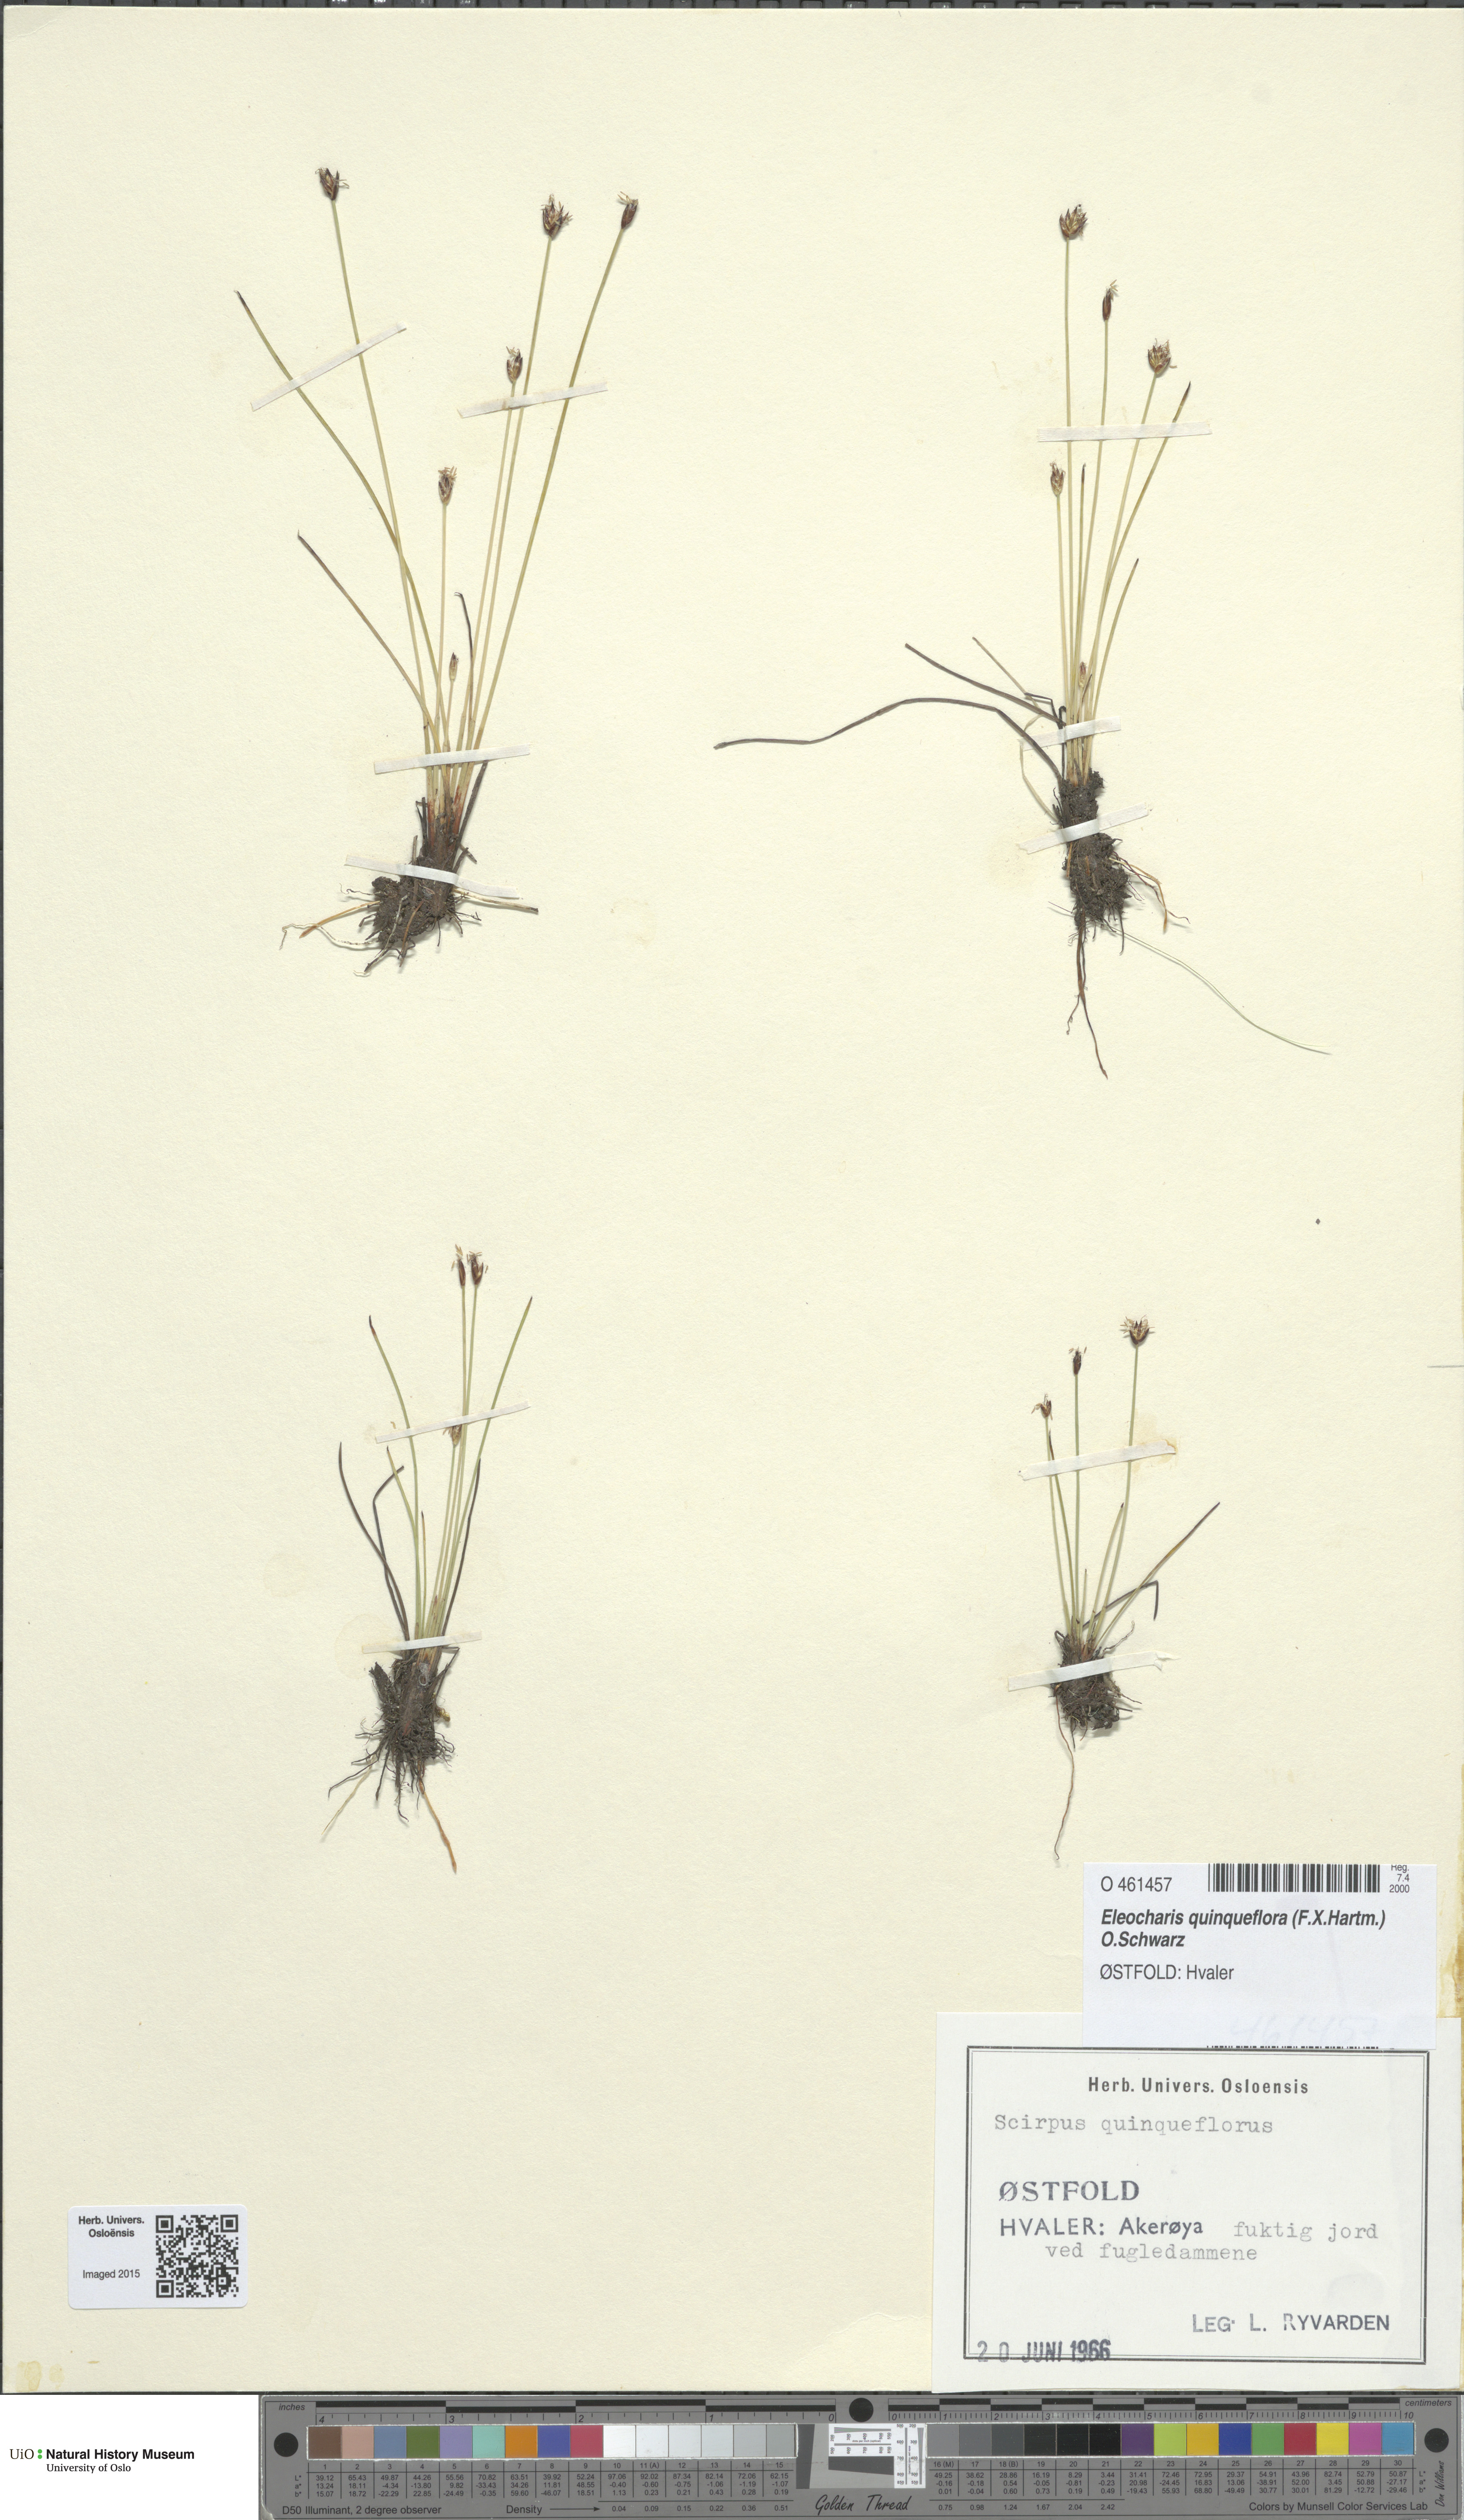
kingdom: Plantae
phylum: Tracheophyta
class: Liliopsida
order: Poales
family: Cyperaceae
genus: Eleocharis
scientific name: Eleocharis quinqueflora
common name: Few-flowered spike-rush
